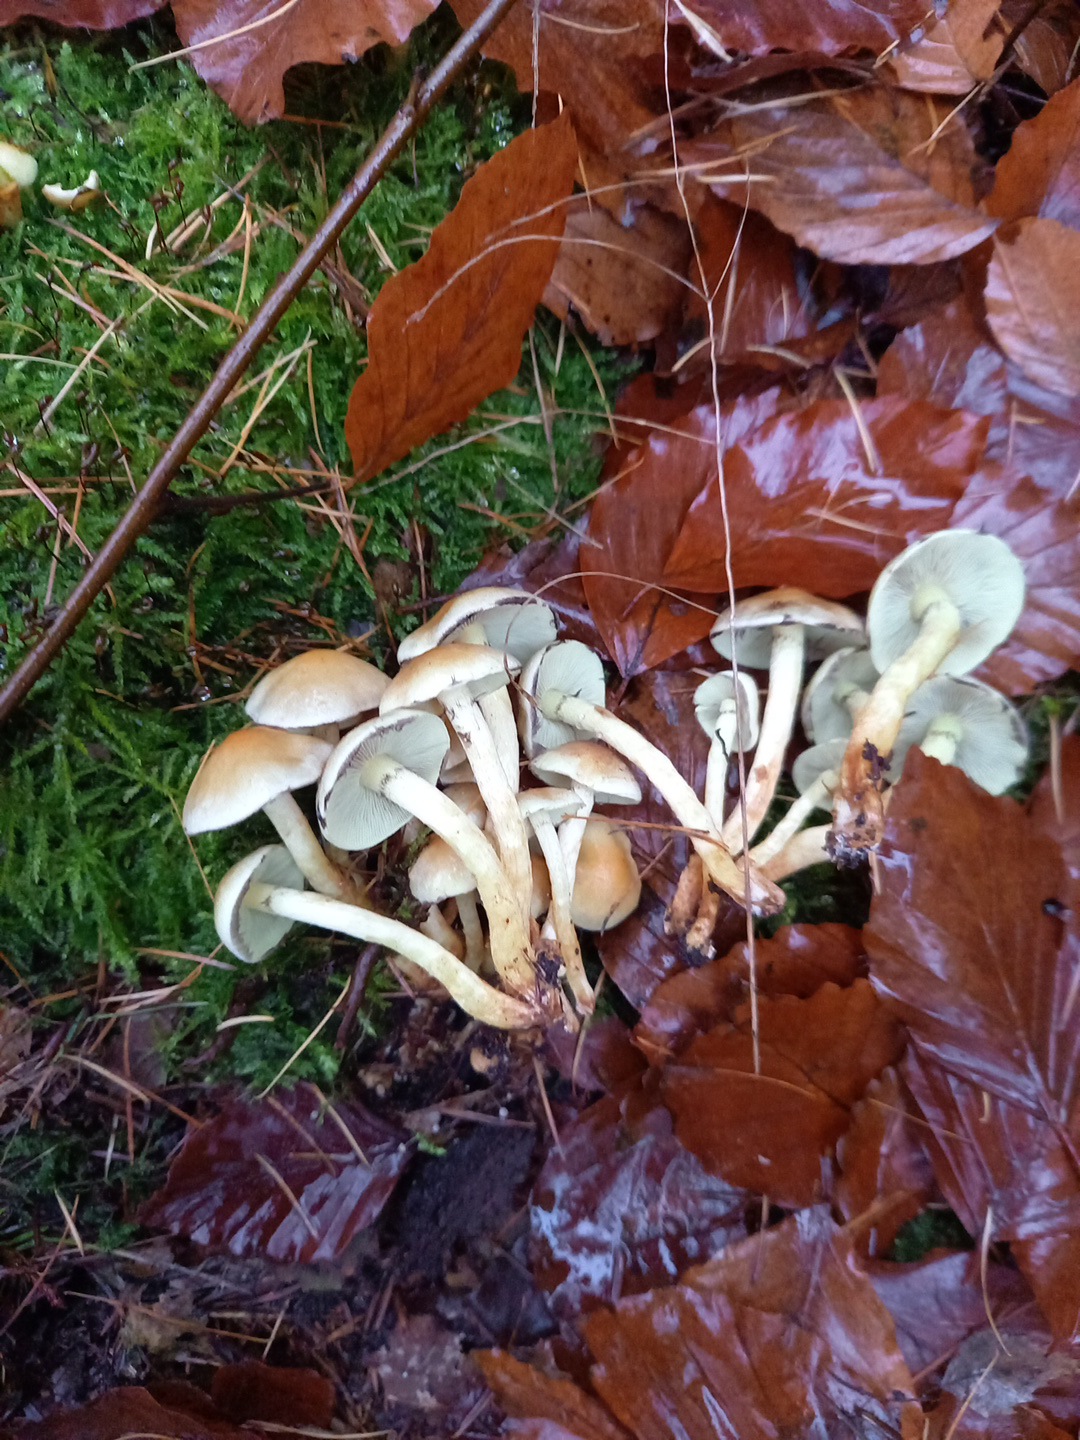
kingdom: Fungi
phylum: Basidiomycota
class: Agaricomycetes
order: Agaricales
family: Strophariaceae
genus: Hypholoma
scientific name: Hypholoma fasciculare
